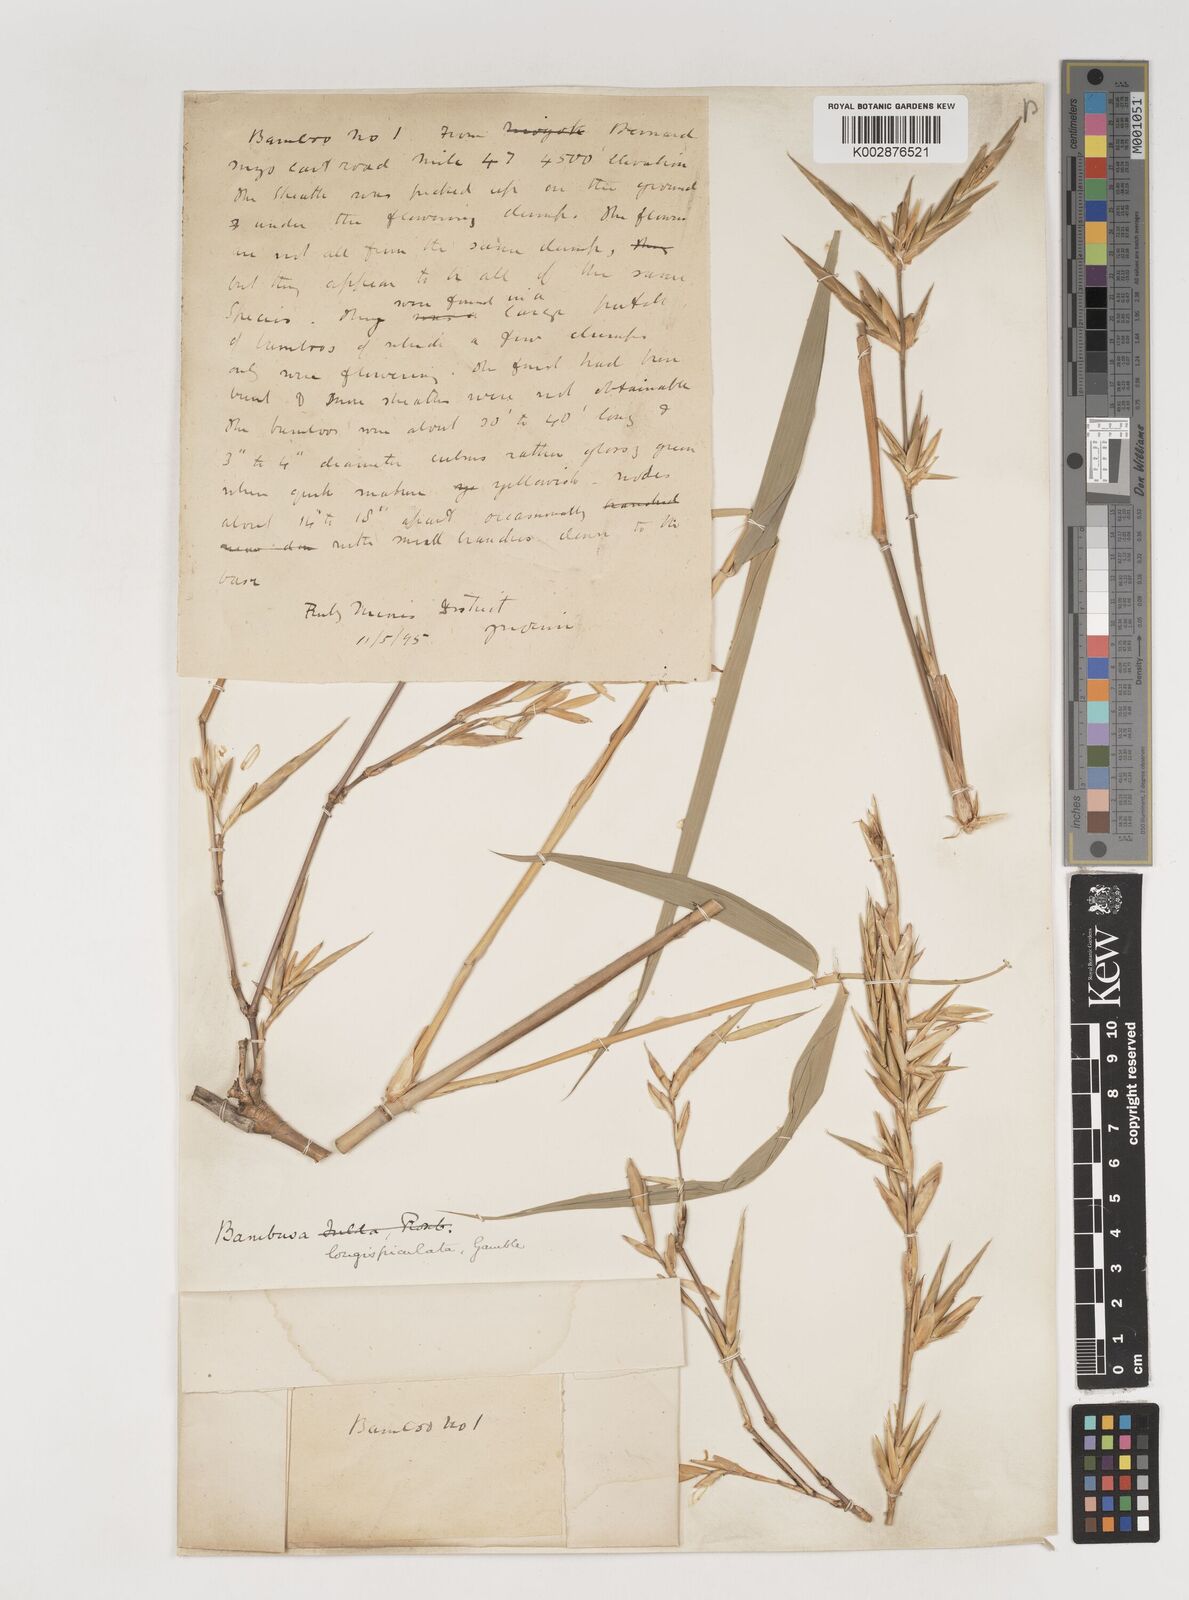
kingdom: Plantae
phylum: Tracheophyta
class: Liliopsida
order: Poales
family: Poaceae
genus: Bambusa
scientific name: Bambusa longispiculata
